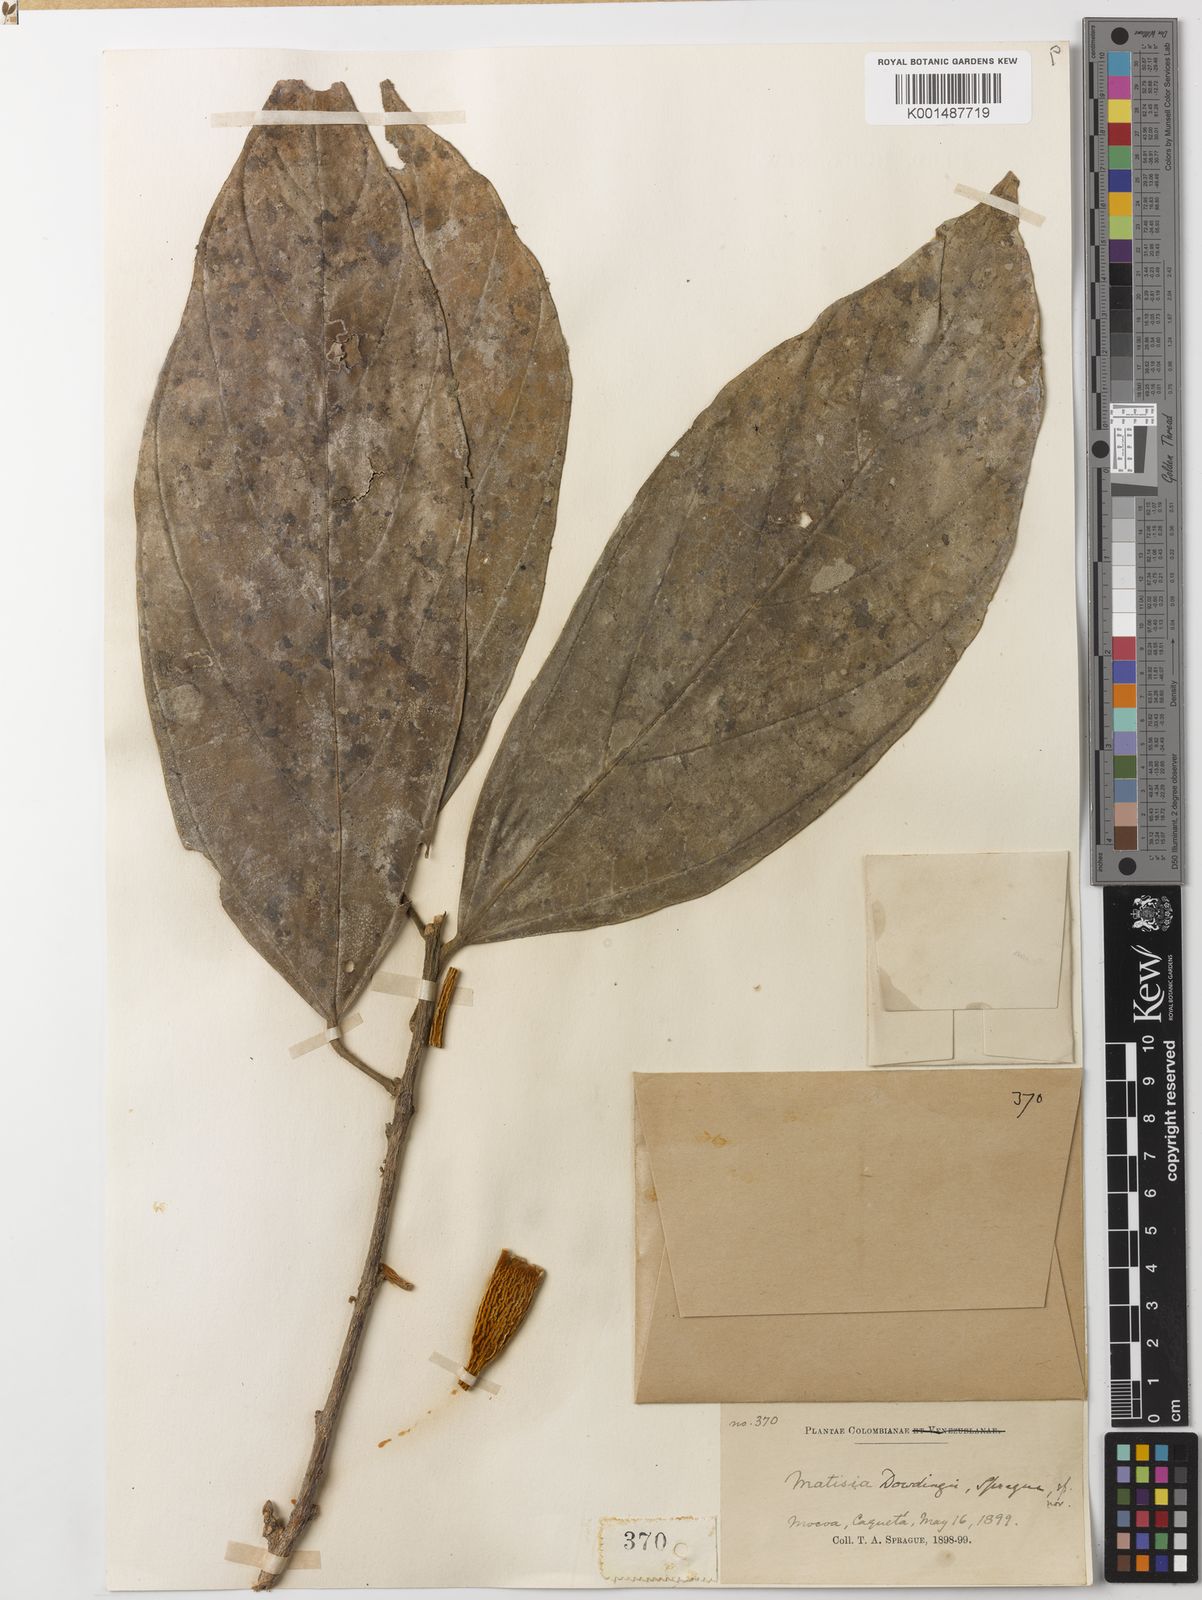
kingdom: Plantae
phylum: Tracheophyta
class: Magnoliopsida
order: Malvales
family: Malvaceae
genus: Matisia
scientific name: Matisia dowdingii
